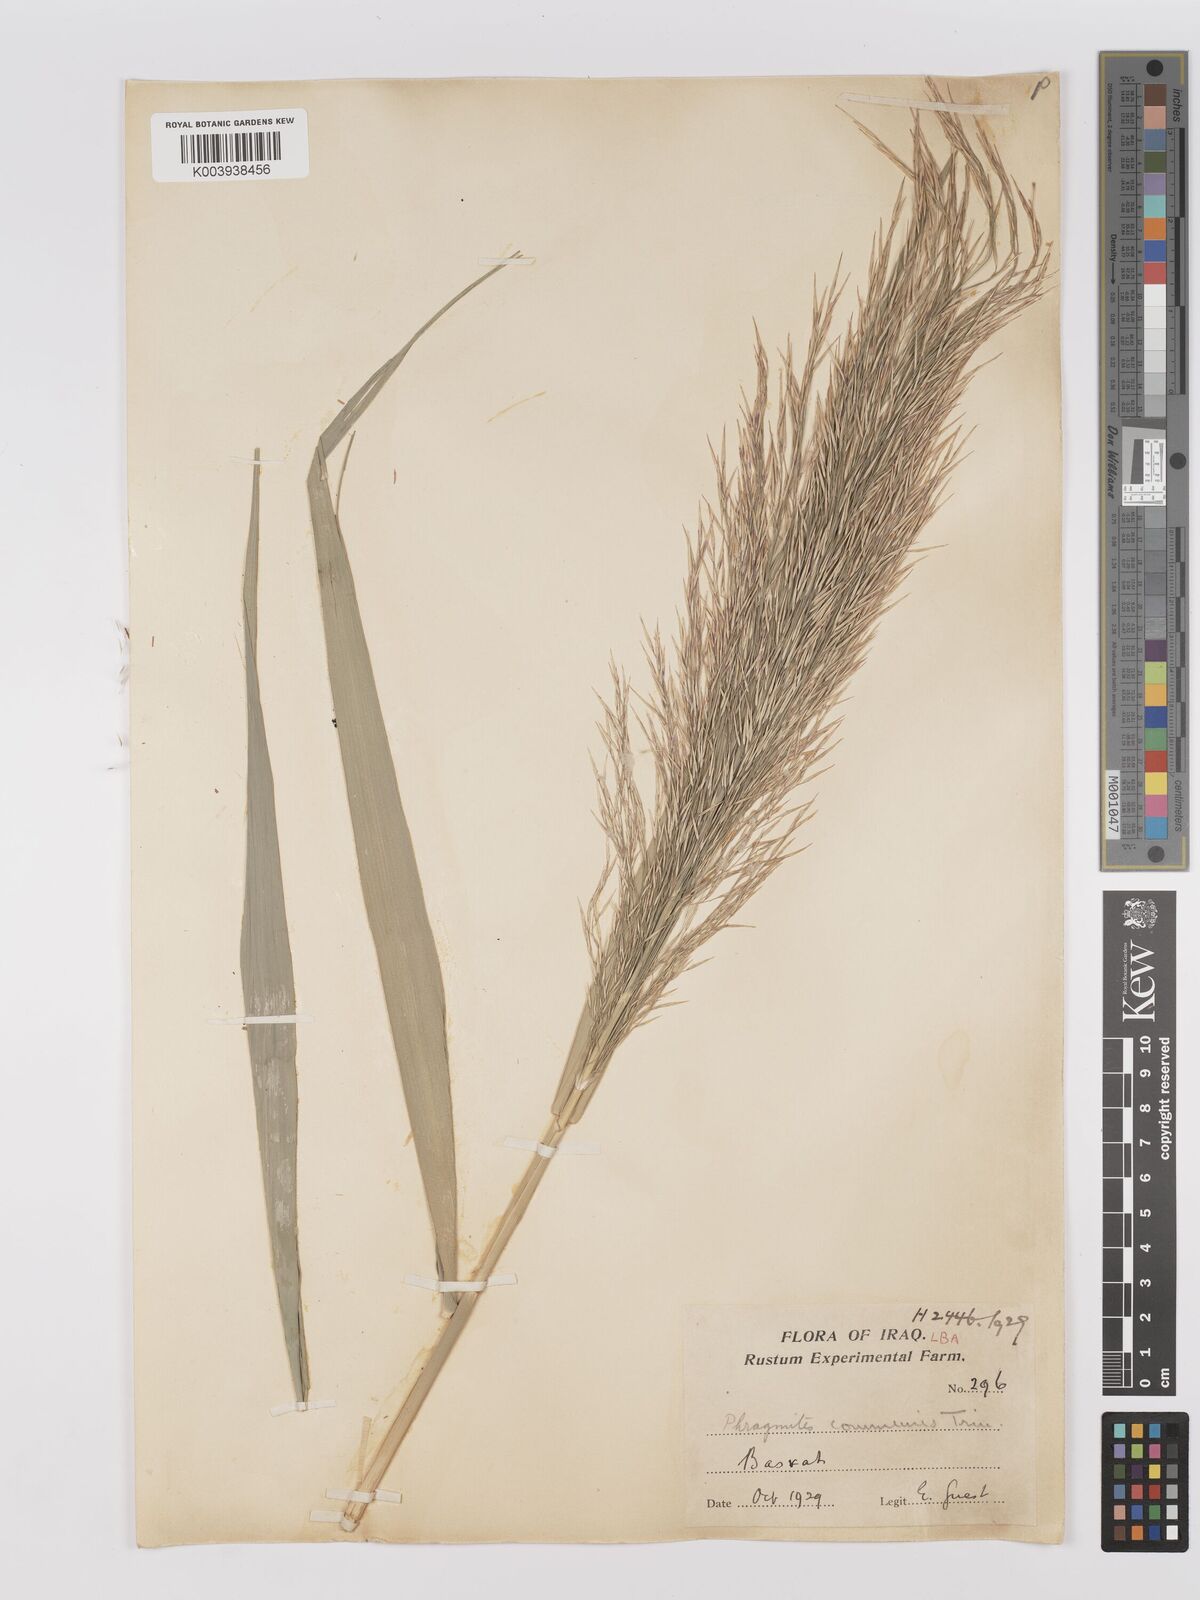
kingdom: Plantae
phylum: Tracheophyta
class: Liliopsida
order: Poales
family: Poaceae
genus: Phragmites
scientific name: Phragmites australis
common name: Common reed
